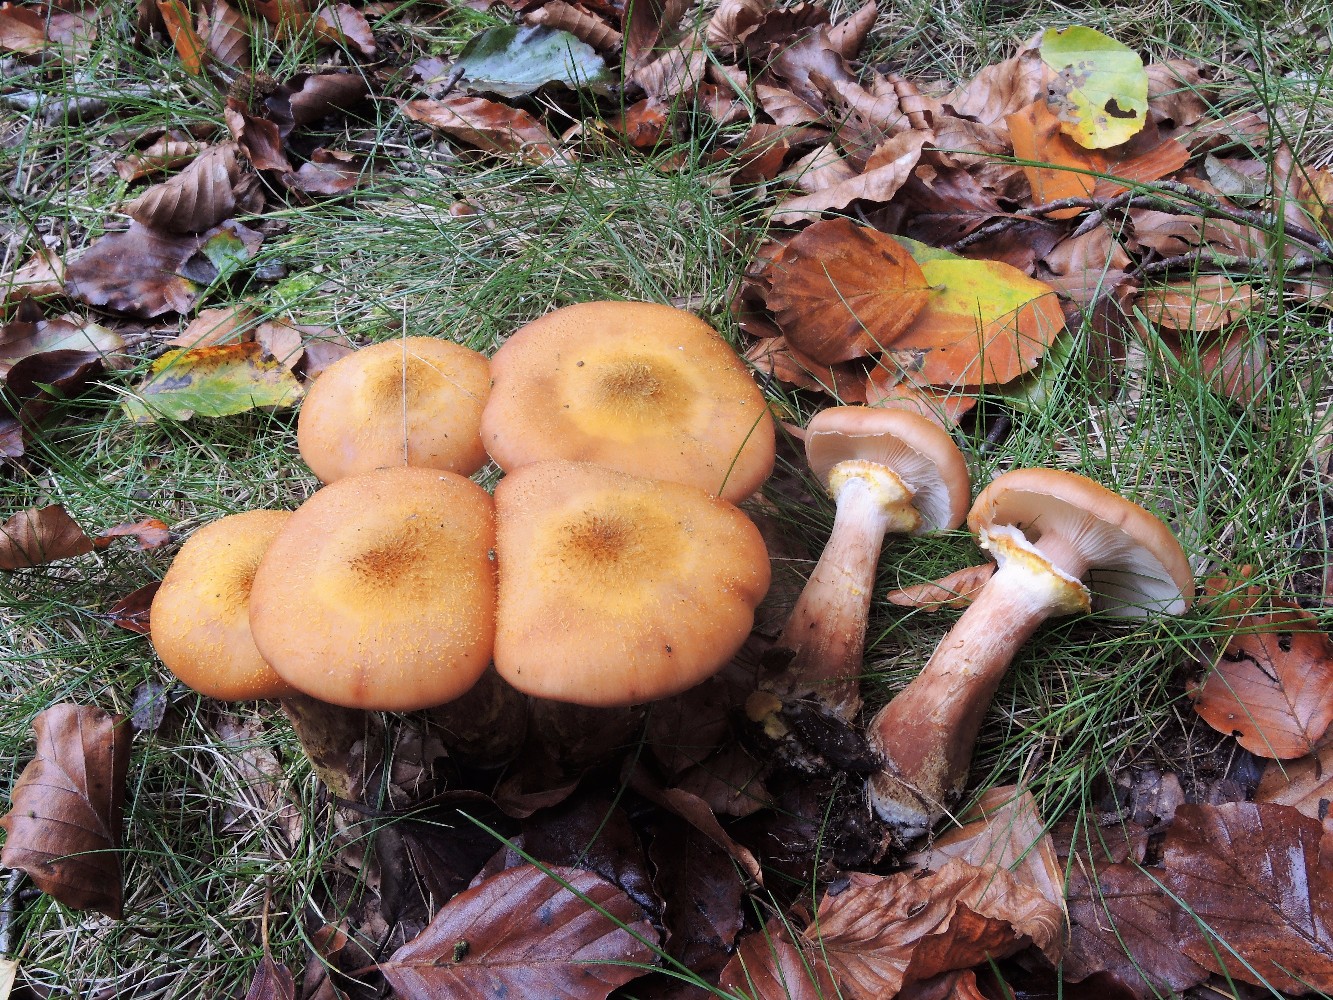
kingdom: Fungi
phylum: Basidiomycota
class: Agaricomycetes
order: Agaricales
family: Physalacriaceae
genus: Armillaria
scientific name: Armillaria lutea
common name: køllestokket honningsvamp
